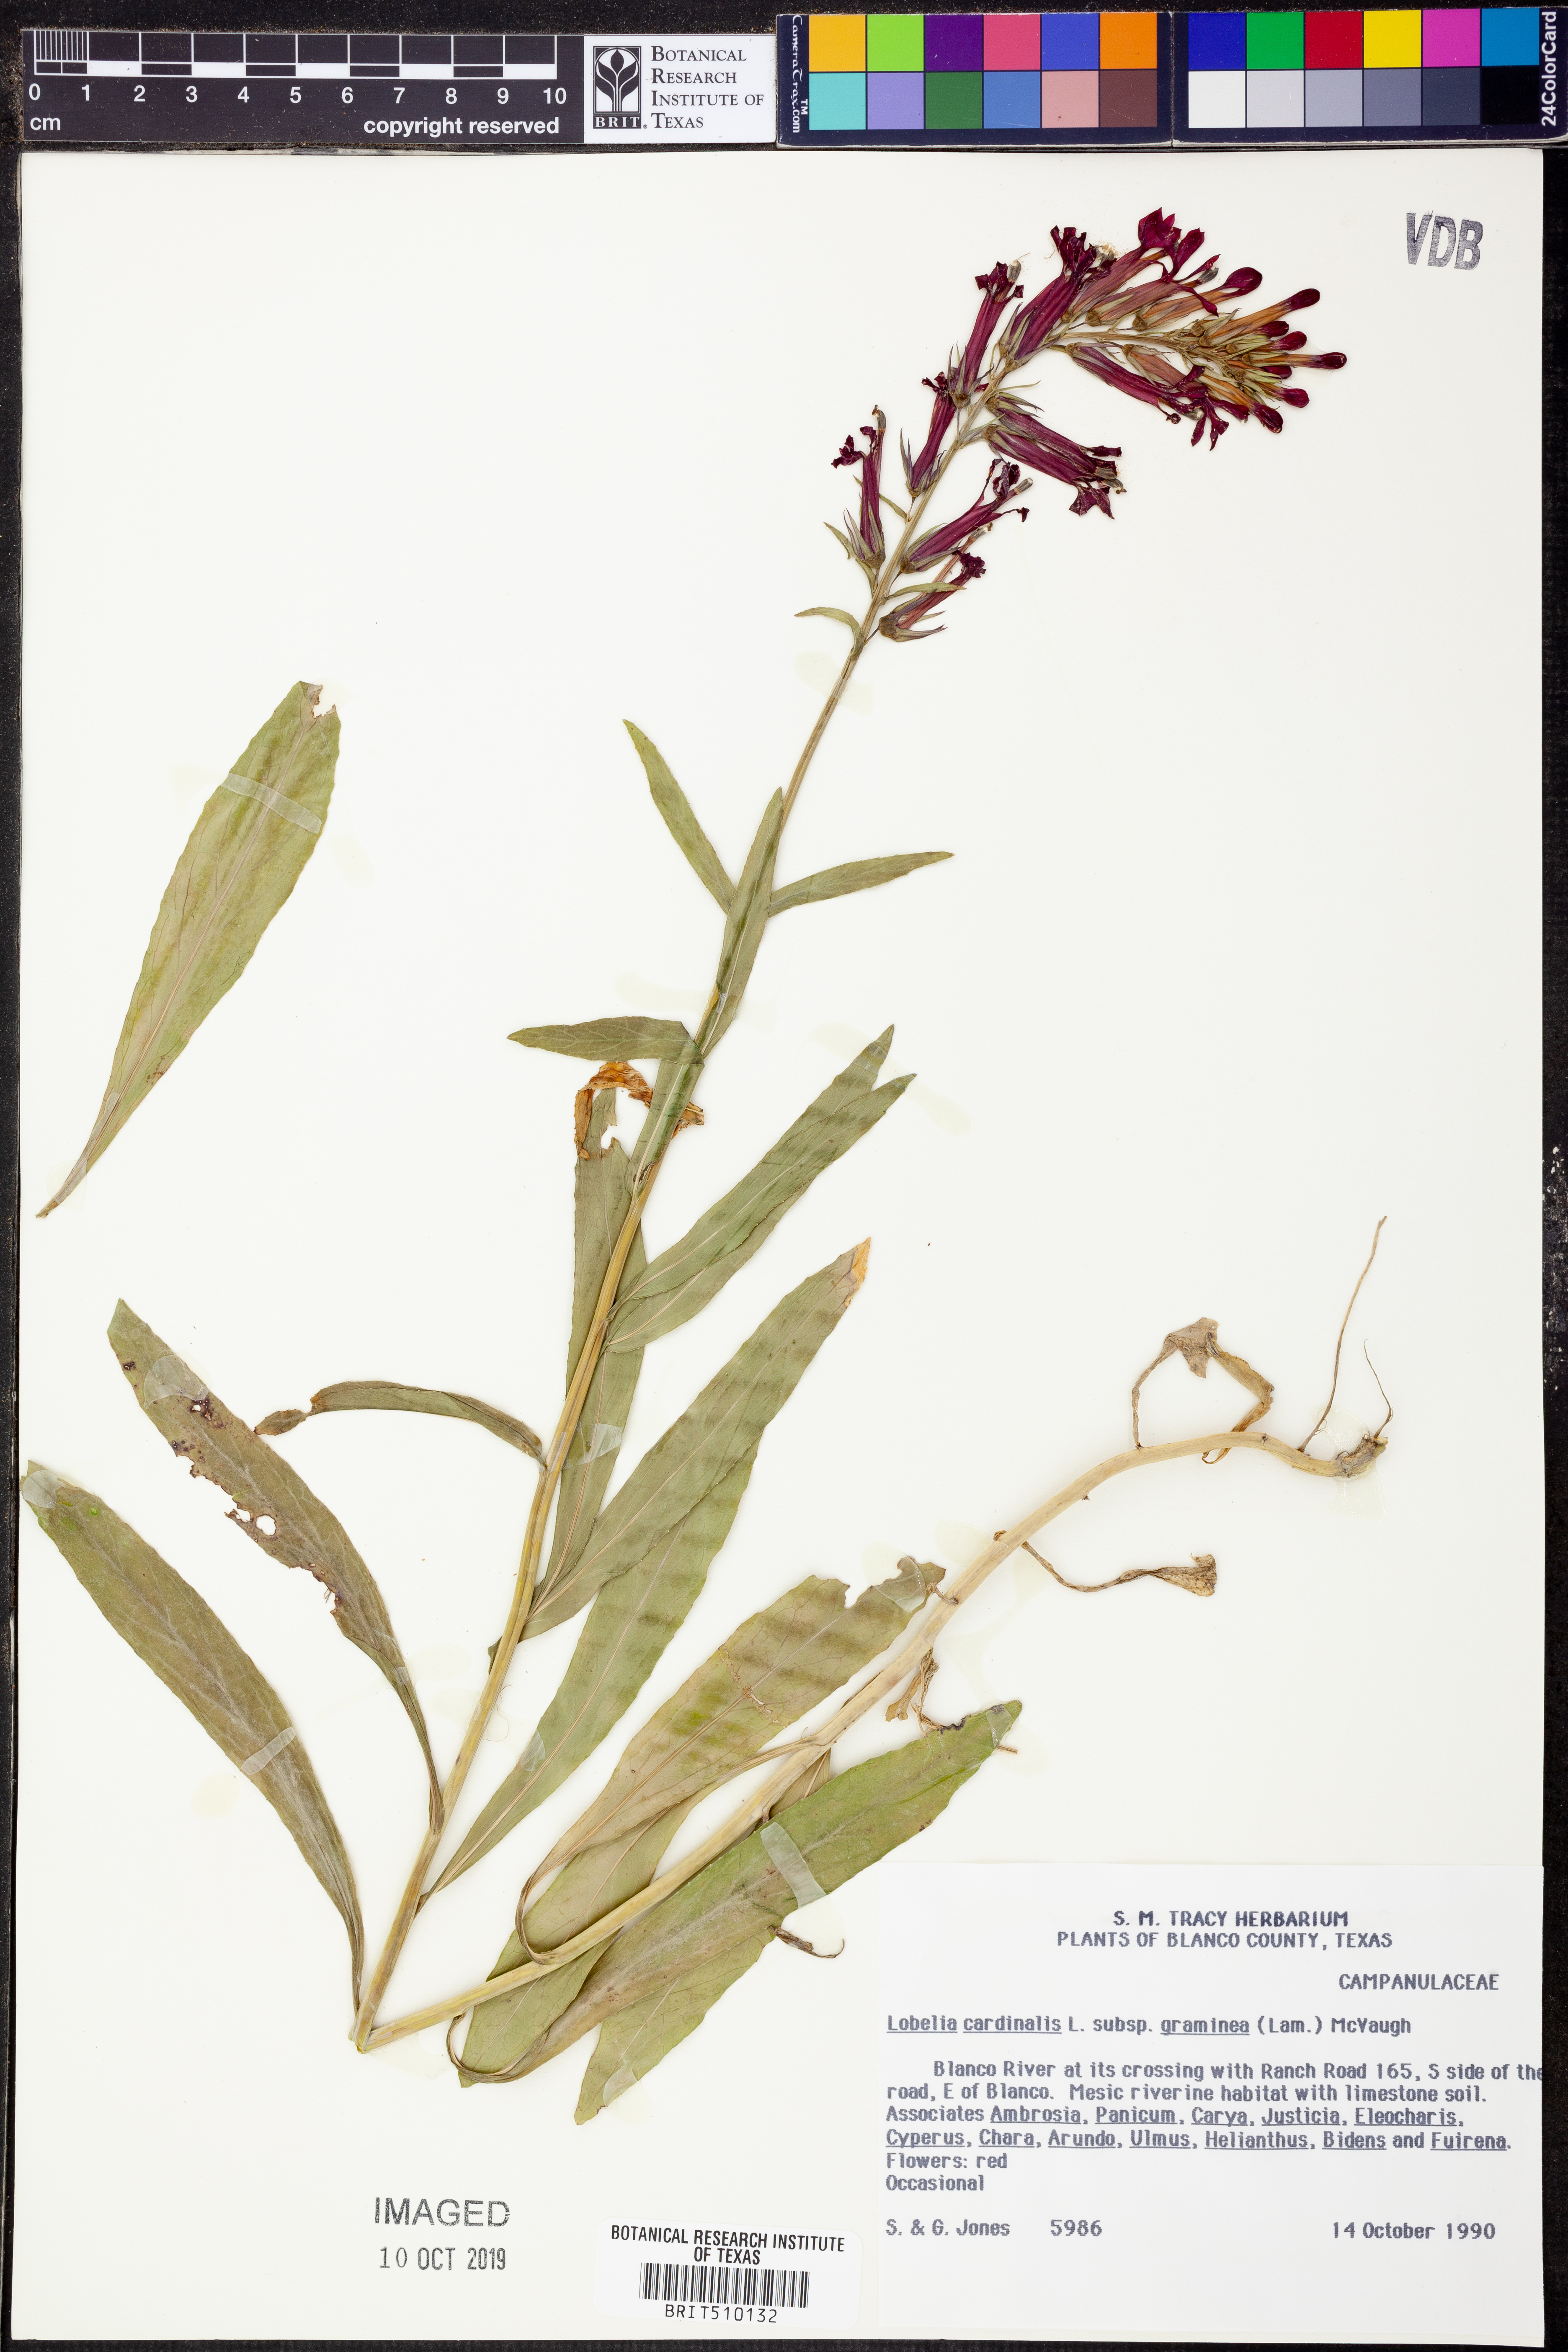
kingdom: Plantae
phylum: Tracheophyta
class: Magnoliopsida
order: Asterales
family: Campanulaceae
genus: Lobelia
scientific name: Lobelia cardinalis
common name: Cardinal flower
